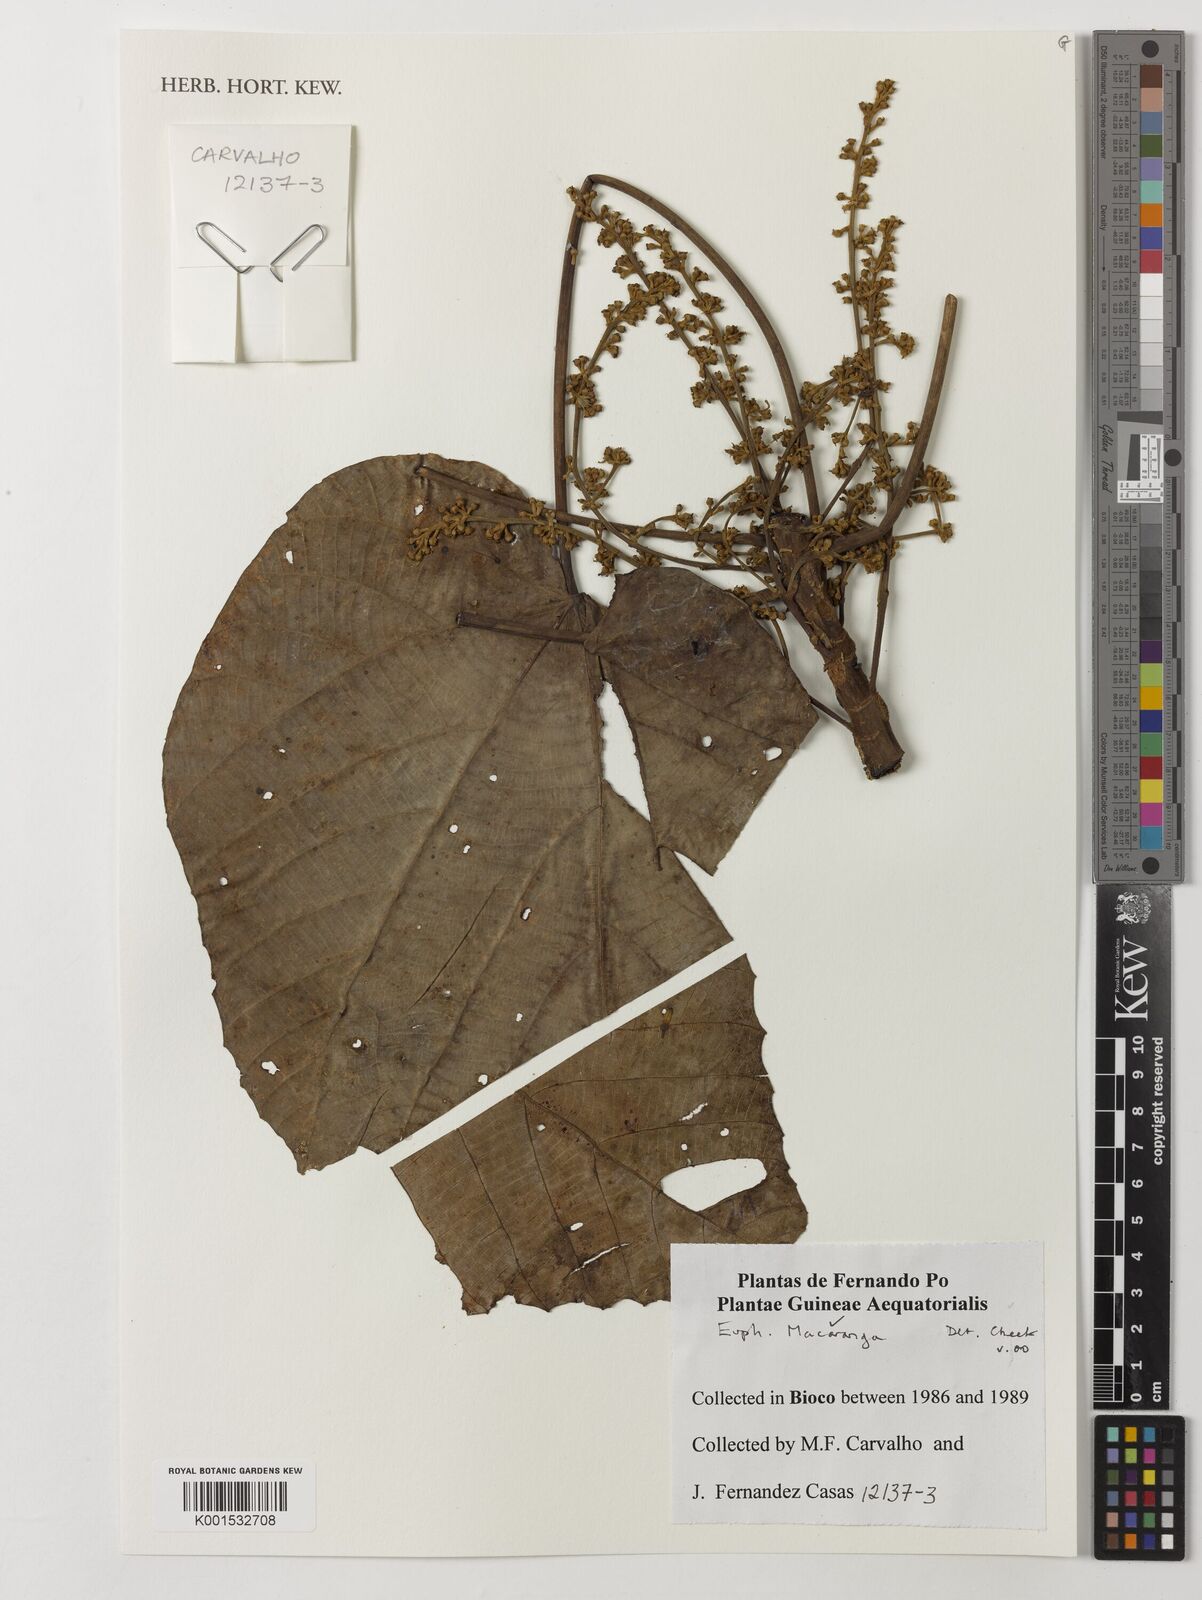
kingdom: Plantae
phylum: Tracheophyta
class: Magnoliopsida
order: Malpighiales
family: Euphorbiaceae
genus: Macaranga
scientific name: Macaranga
